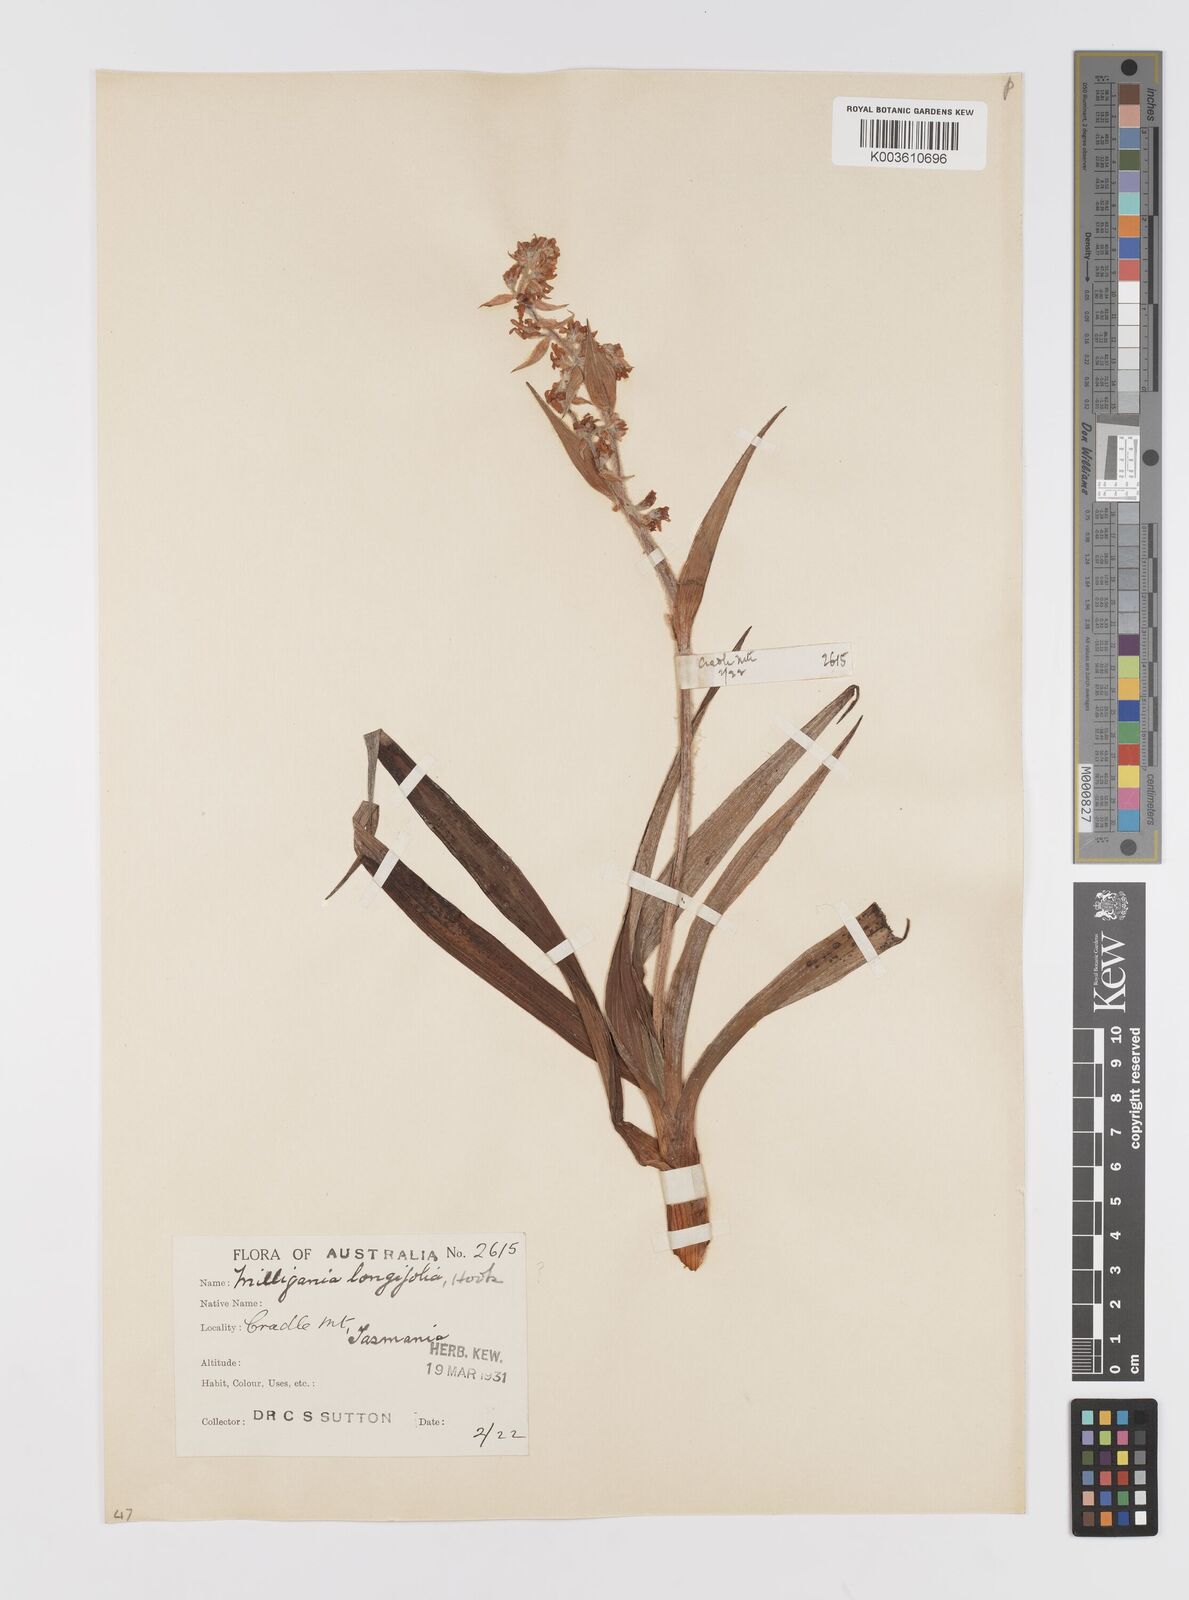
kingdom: Plantae
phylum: Tracheophyta
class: Liliopsida
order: Asparagales
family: Asteliaceae
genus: Milligania
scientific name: Milligania
